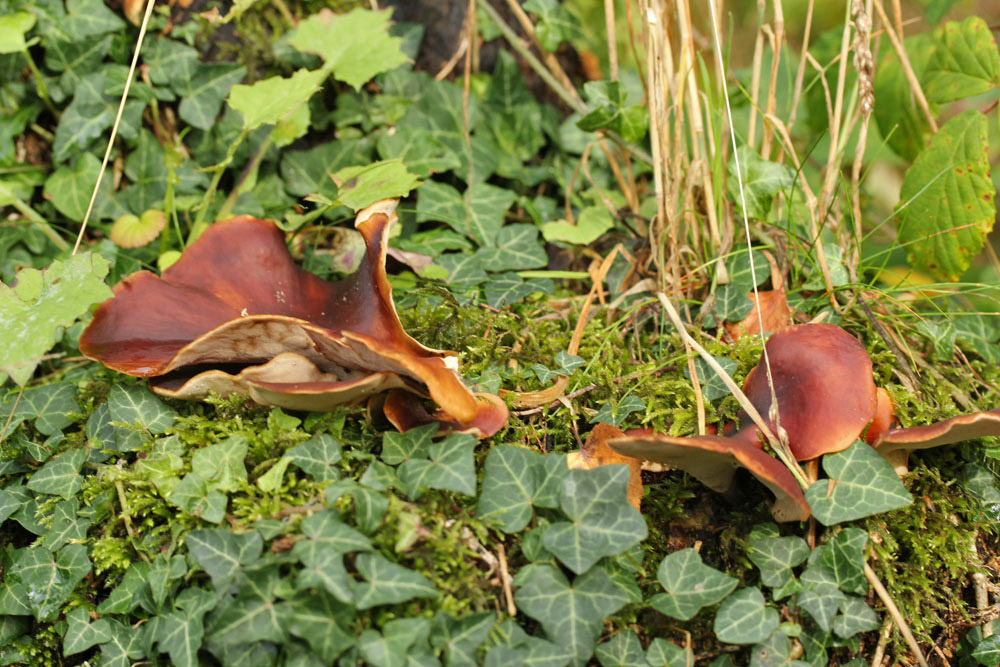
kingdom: Fungi
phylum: Basidiomycota
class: Agaricomycetes
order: Polyporales
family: Polyporaceae
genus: Picipes
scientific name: Picipes badius
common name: kastaniebrun stilkporesvamp
